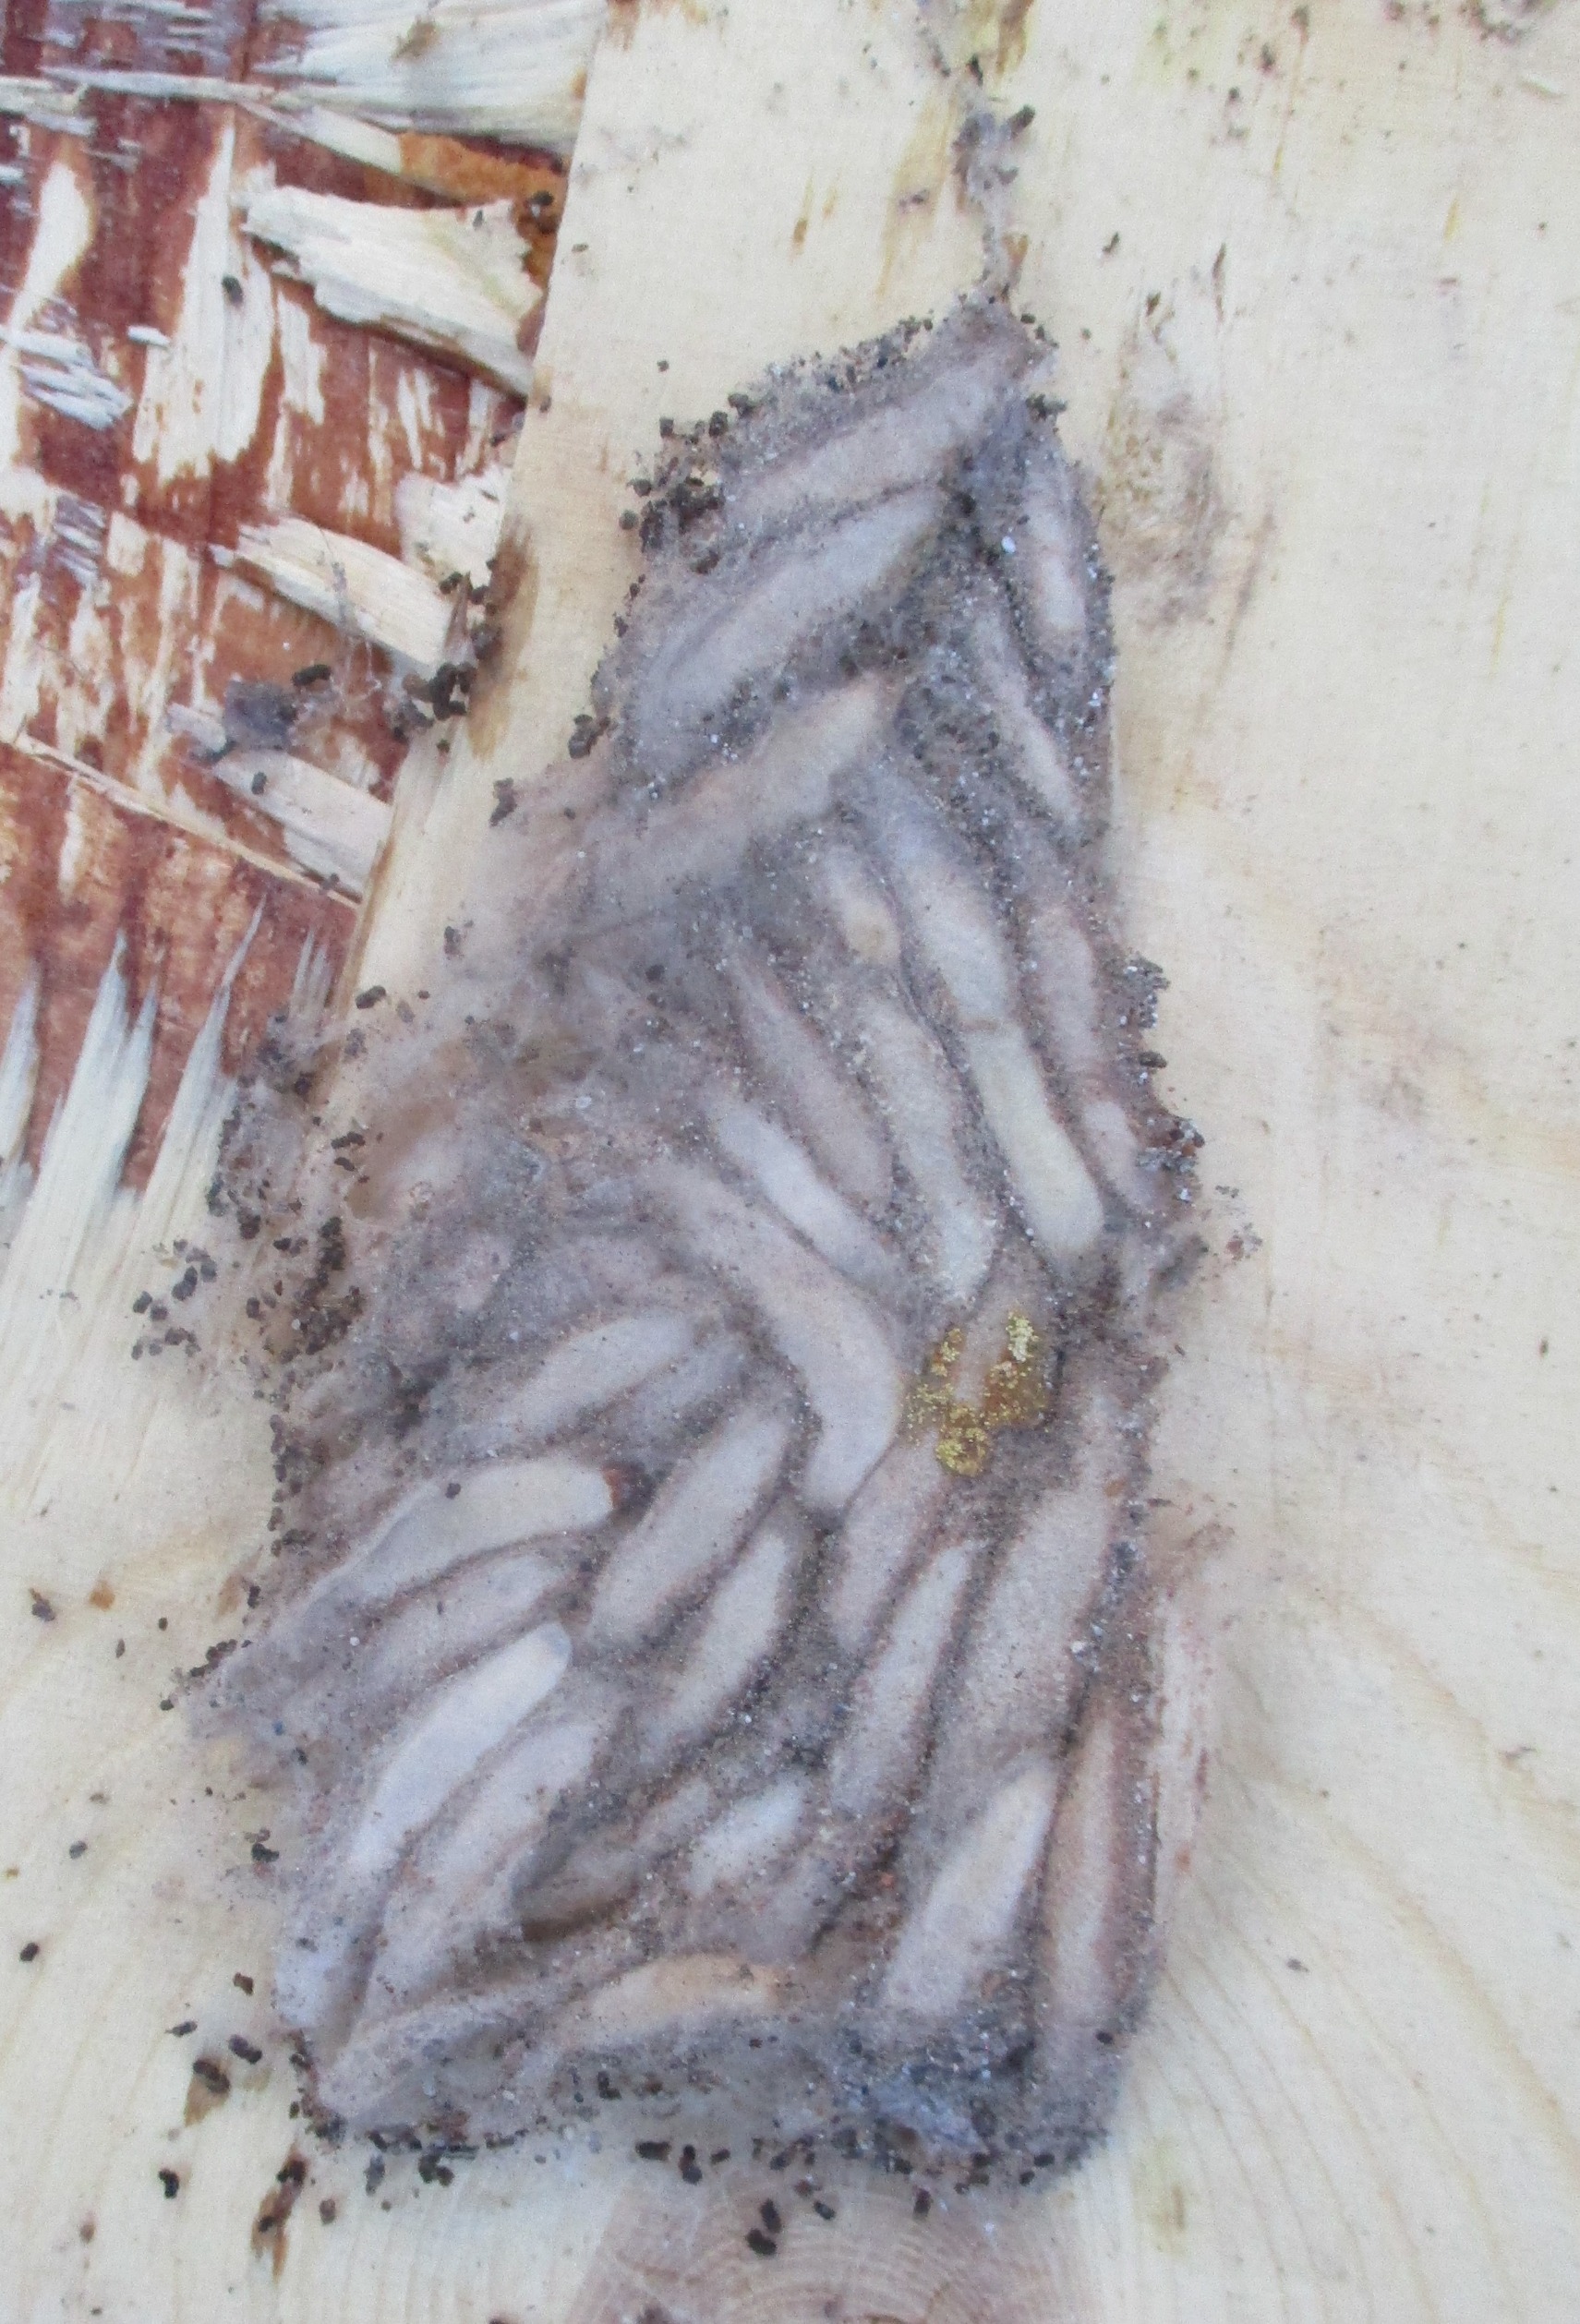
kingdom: Animalia
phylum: Arthropoda
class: Insecta
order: Lepidoptera
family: Pyralidae
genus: Aphomia
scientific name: Aphomia sociella
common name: Humlevoksmøl
